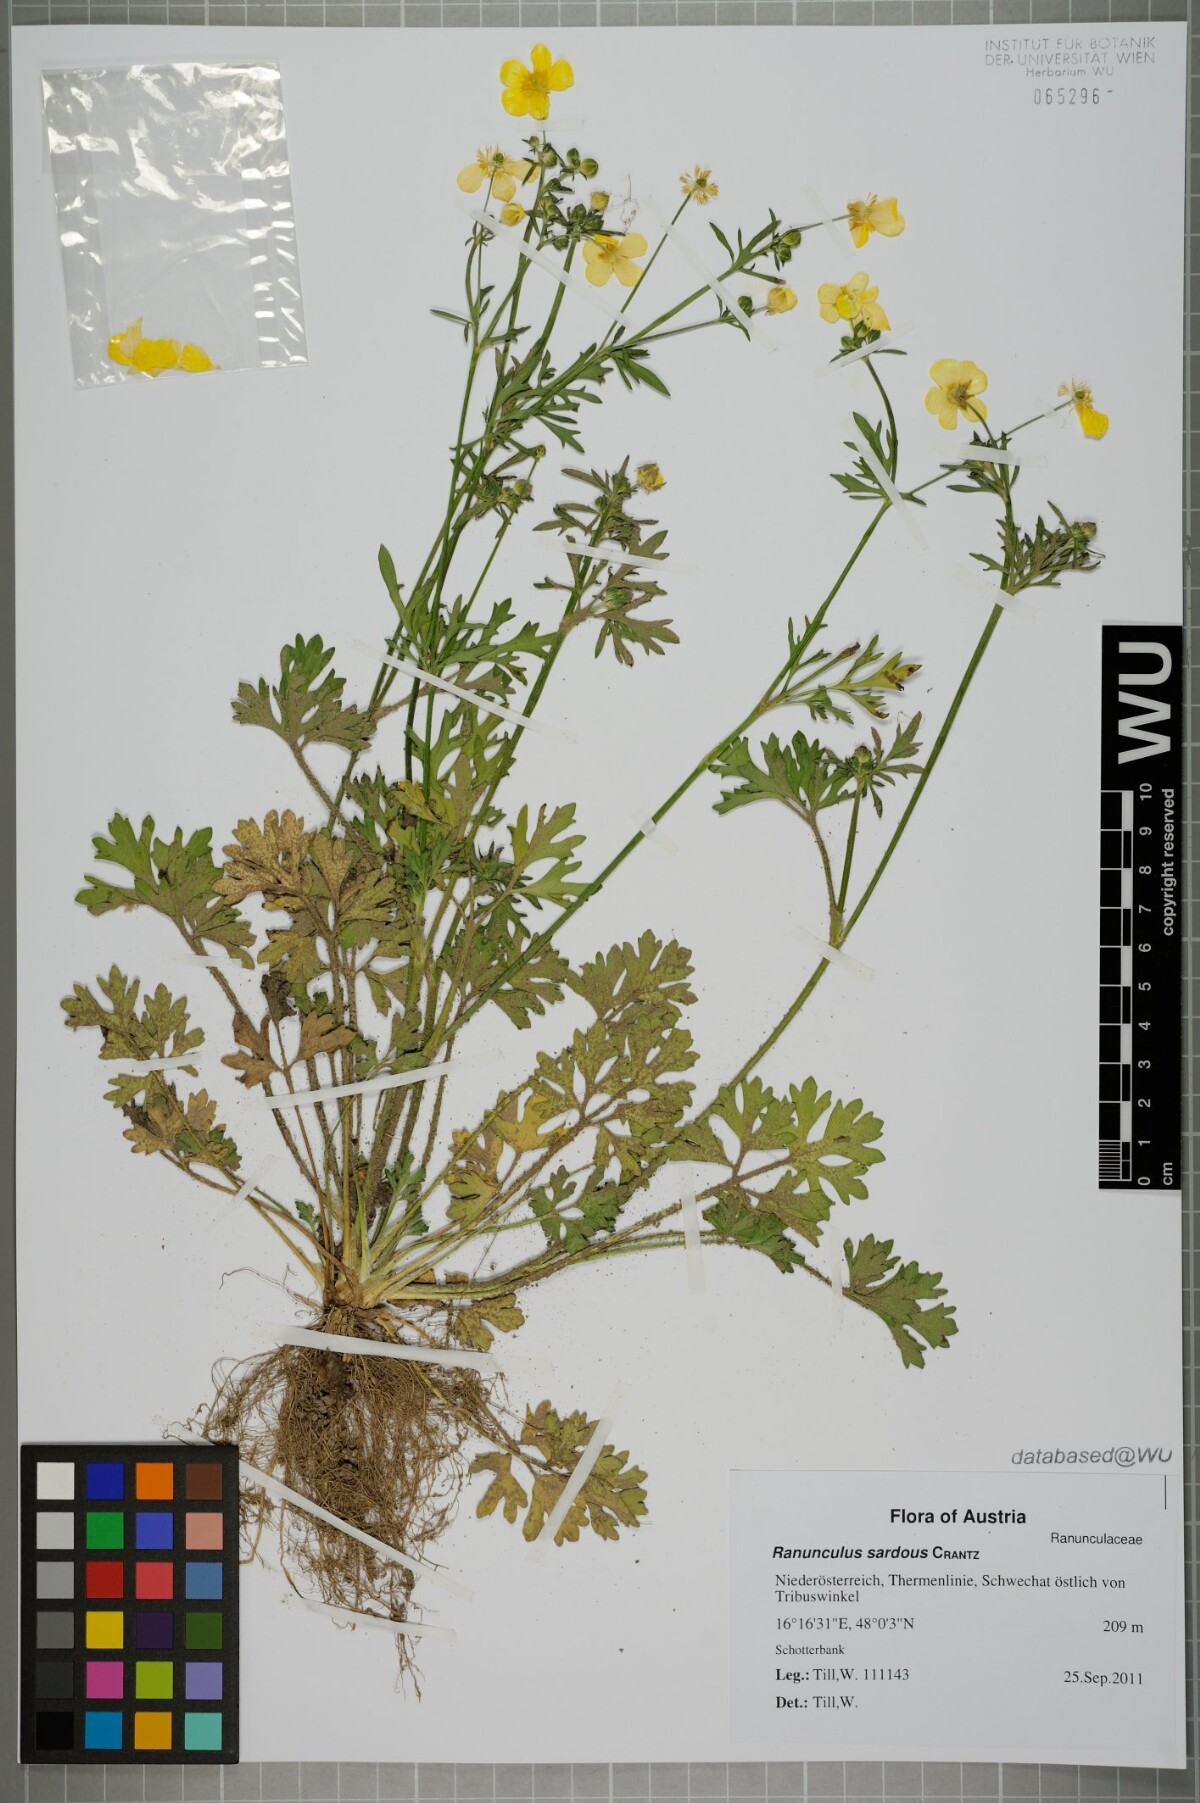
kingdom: Plantae
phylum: Tracheophyta
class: Magnoliopsida
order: Ranunculales
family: Ranunculaceae
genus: Ranunculus
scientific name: Ranunculus sardous
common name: Hairy buttercup
